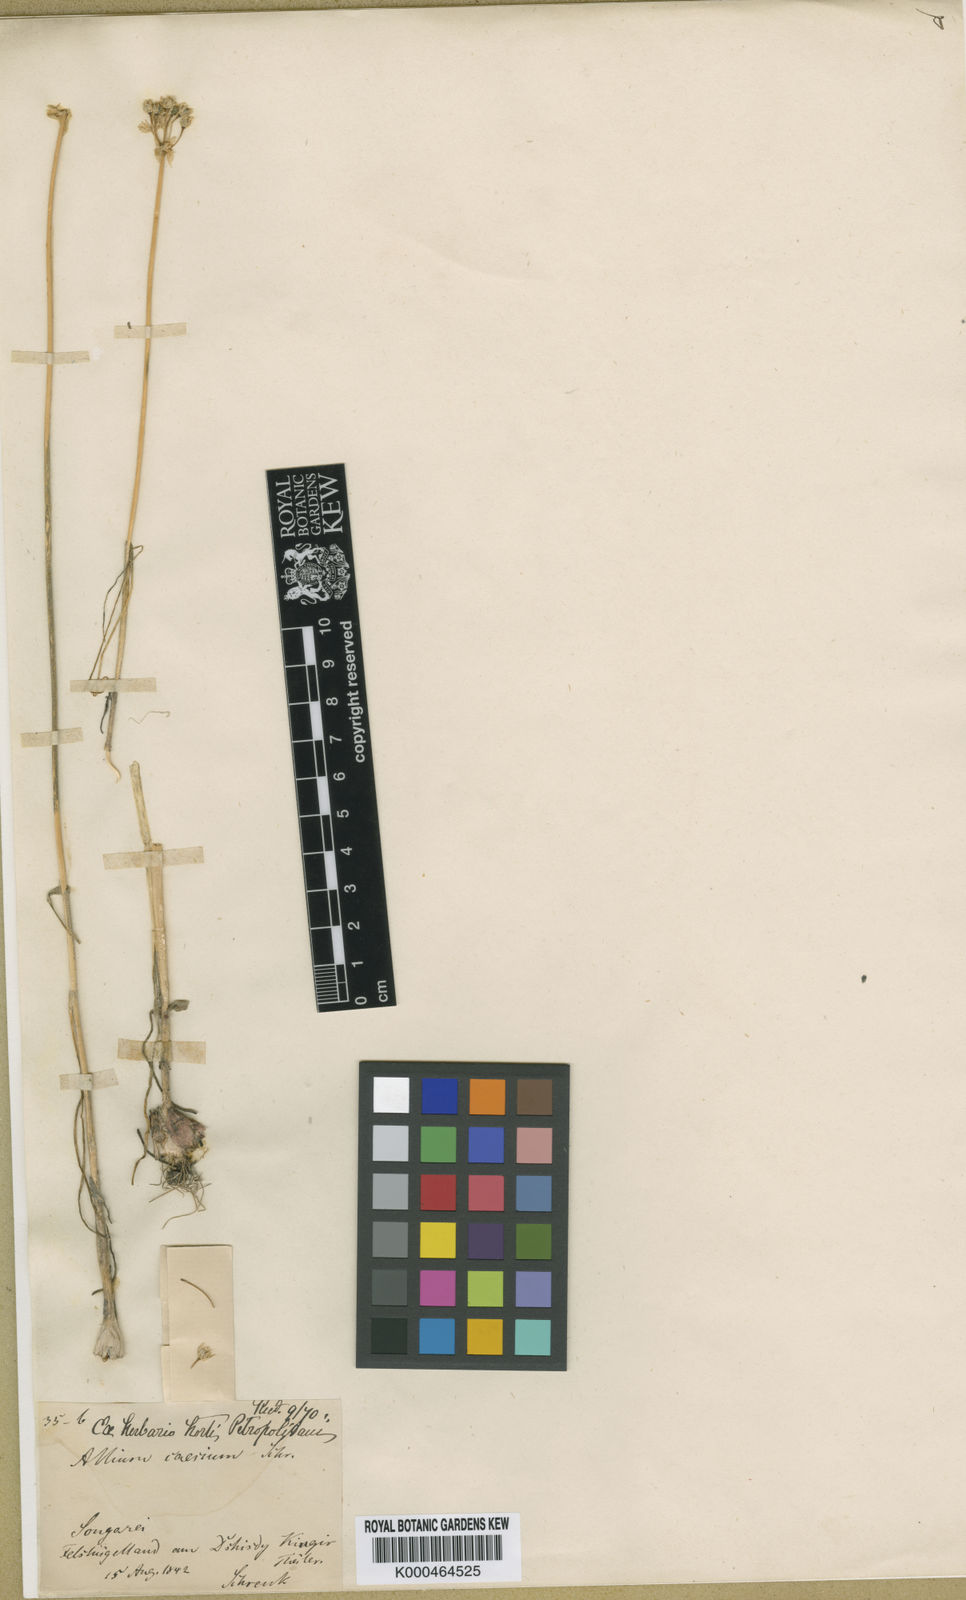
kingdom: Plantae
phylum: Tracheophyta
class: Liliopsida
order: Asparagales
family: Amaryllidaceae
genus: Allium
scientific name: Allium caesium
